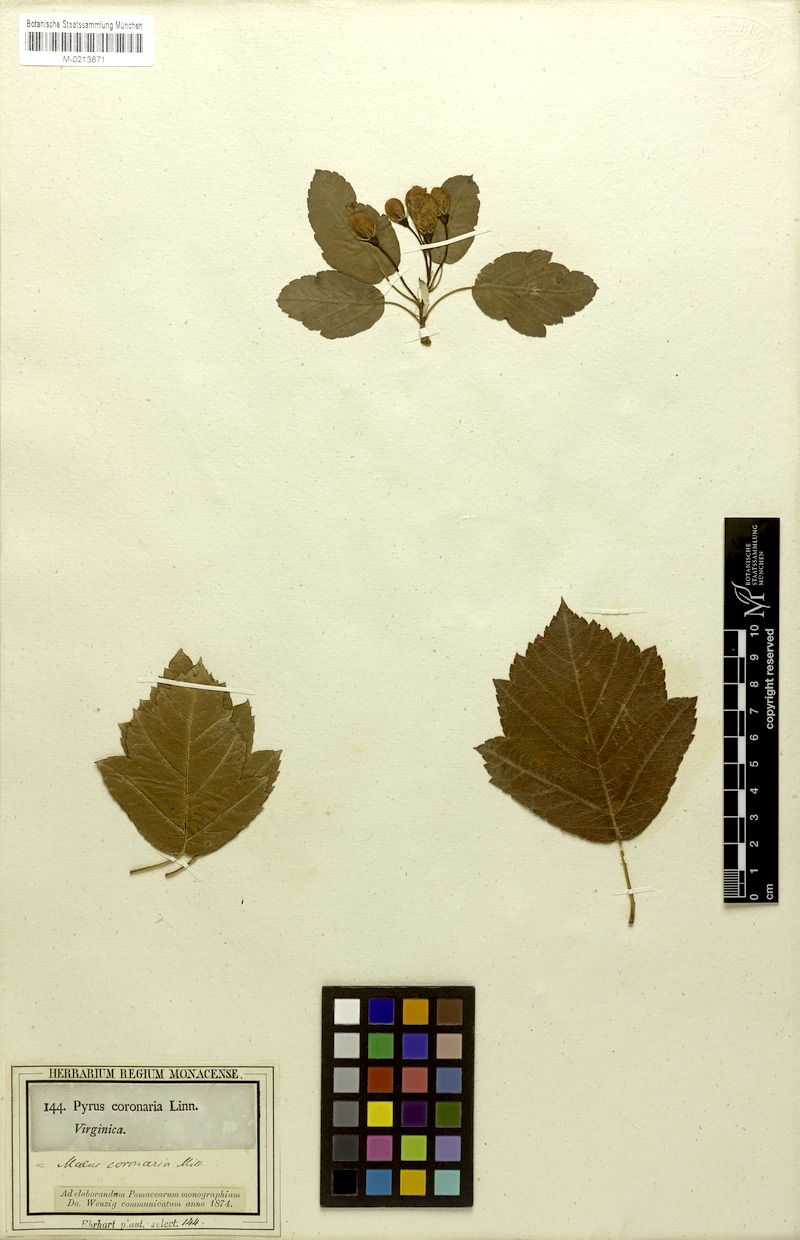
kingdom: Plantae
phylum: Tracheophyta
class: Magnoliopsida
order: Rosales
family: Rosaceae
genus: Malus
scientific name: Malus coronaria
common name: Sweet crab apple
